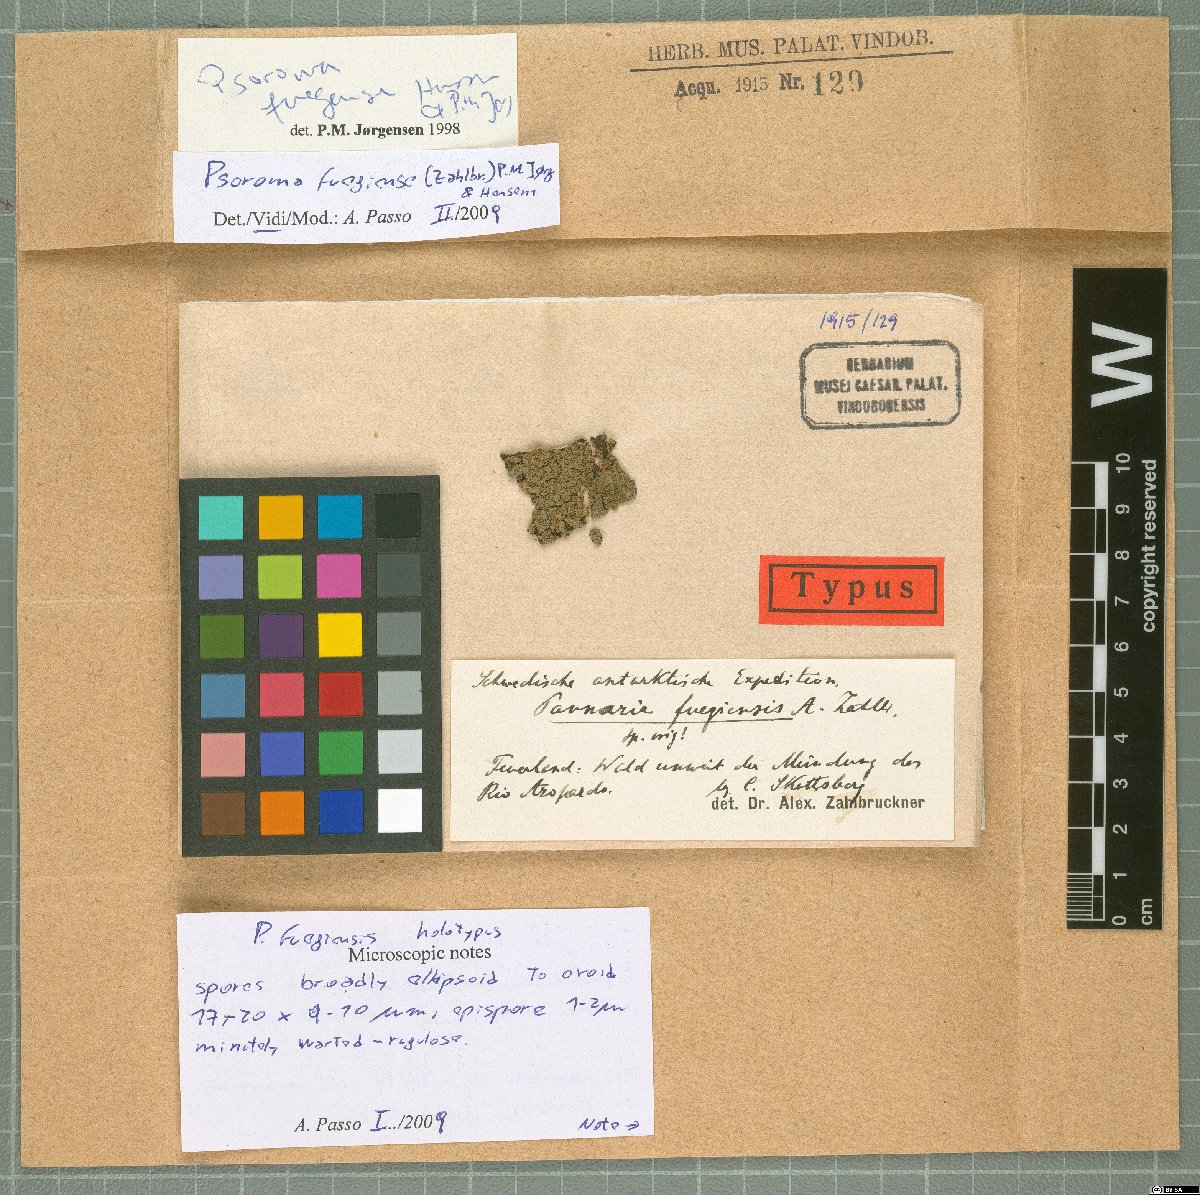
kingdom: Fungi
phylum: Ascomycota
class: Lecanoromycetes
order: Peltigerales
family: Pannariaceae
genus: Psorophorus
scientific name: Psorophorus fuegiensis
